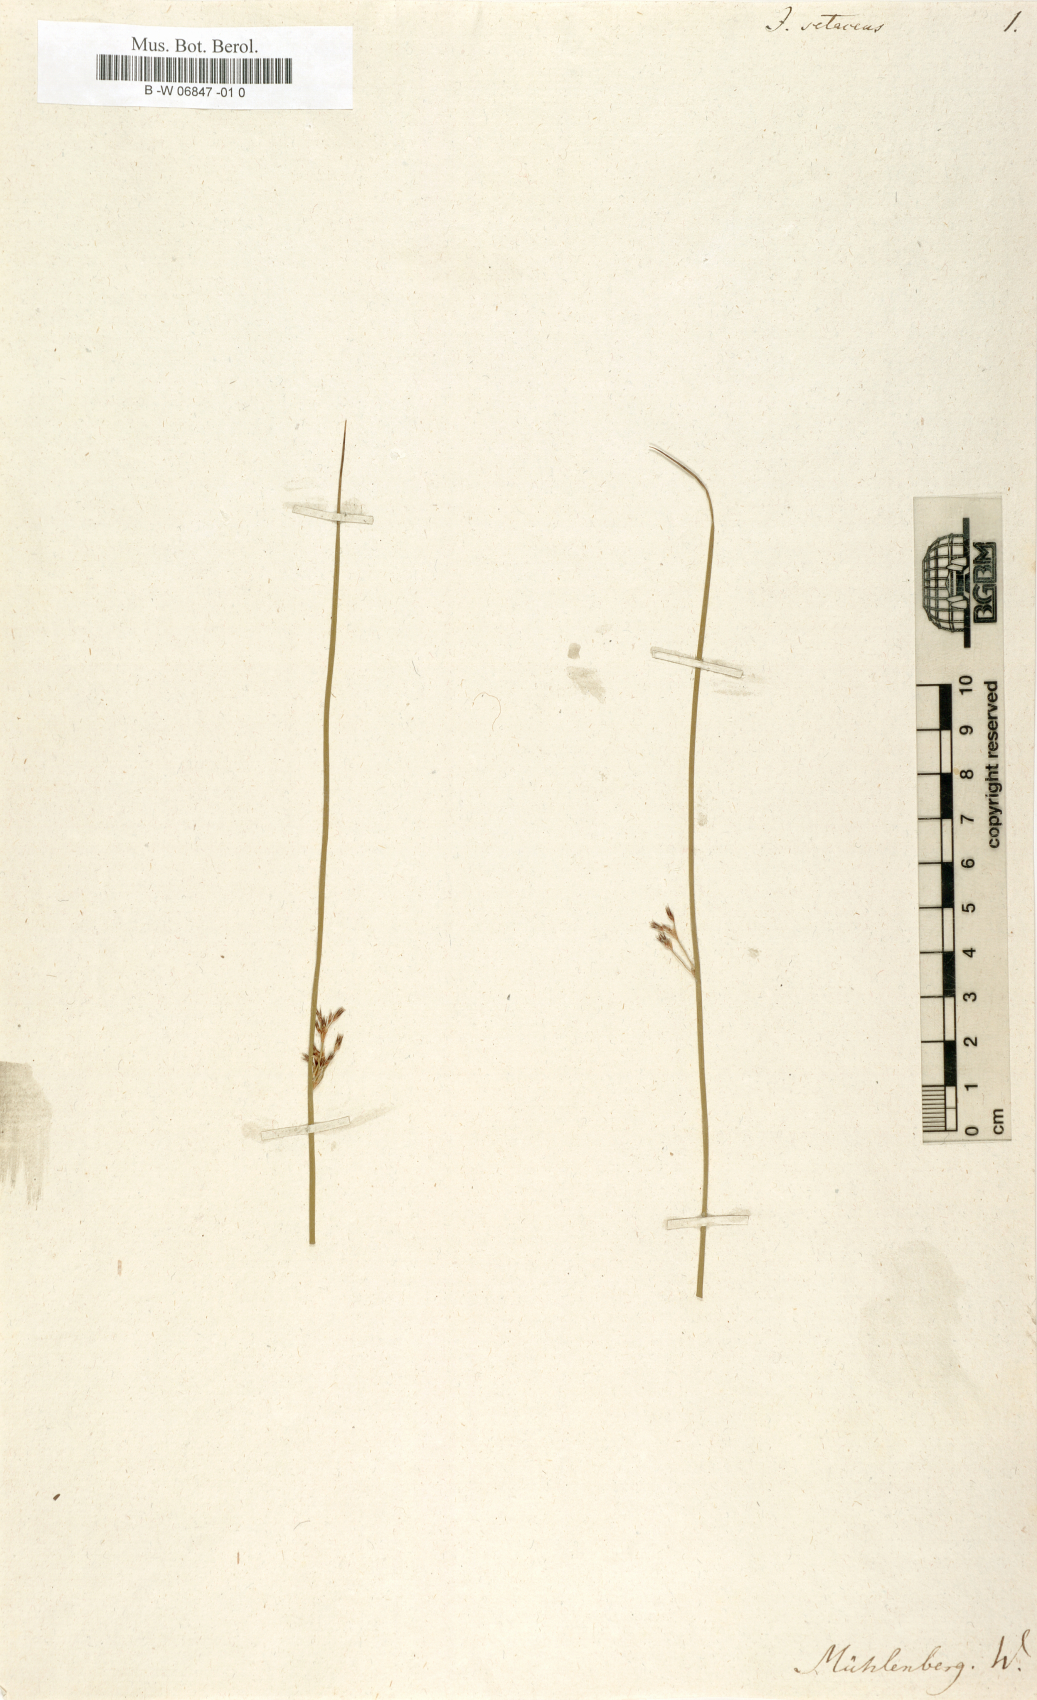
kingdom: Plantae
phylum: Tracheophyta
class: Liliopsida
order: Poales
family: Juncaceae
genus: Juncus
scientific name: Juncus setaceus
